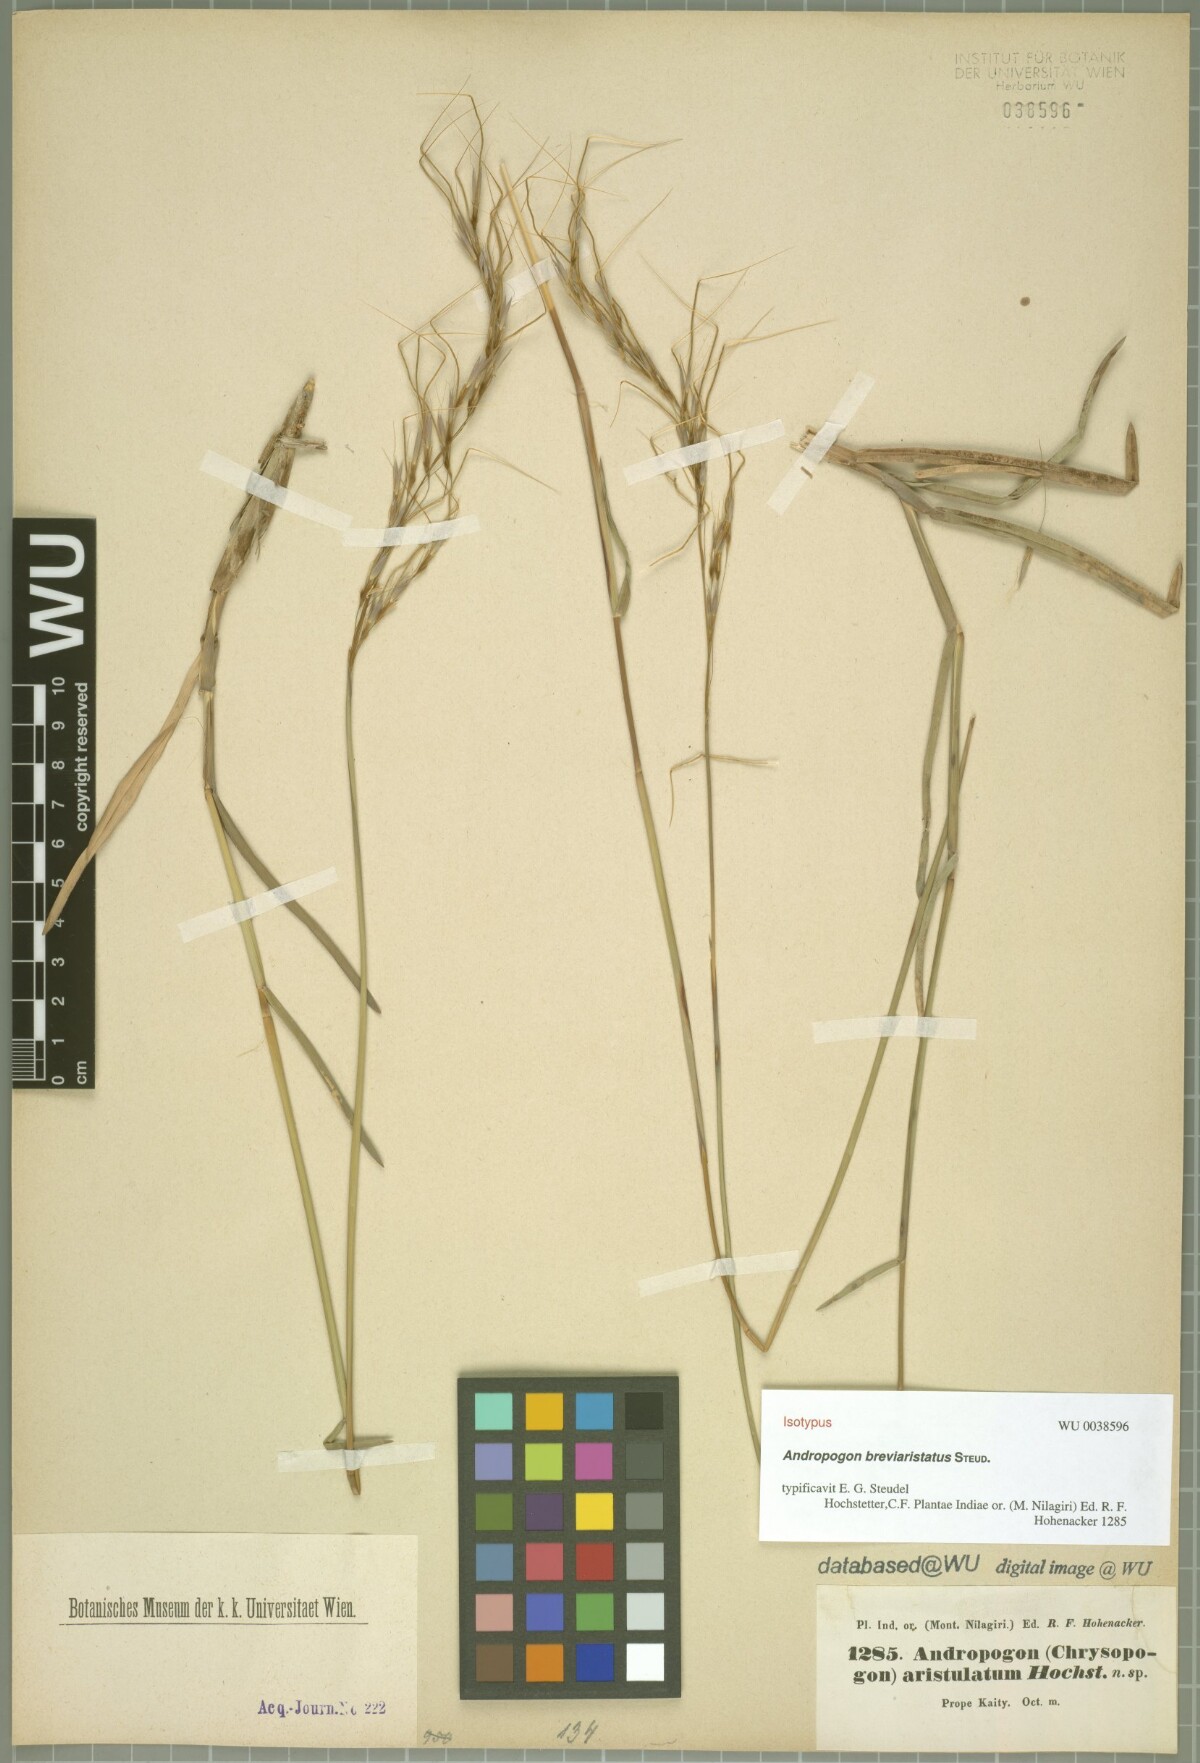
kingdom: Plantae
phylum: Tracheophyta
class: Liliopsida
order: Poales
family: Poaceae
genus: Chrysopogon
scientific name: Chrysopogon orientalis
